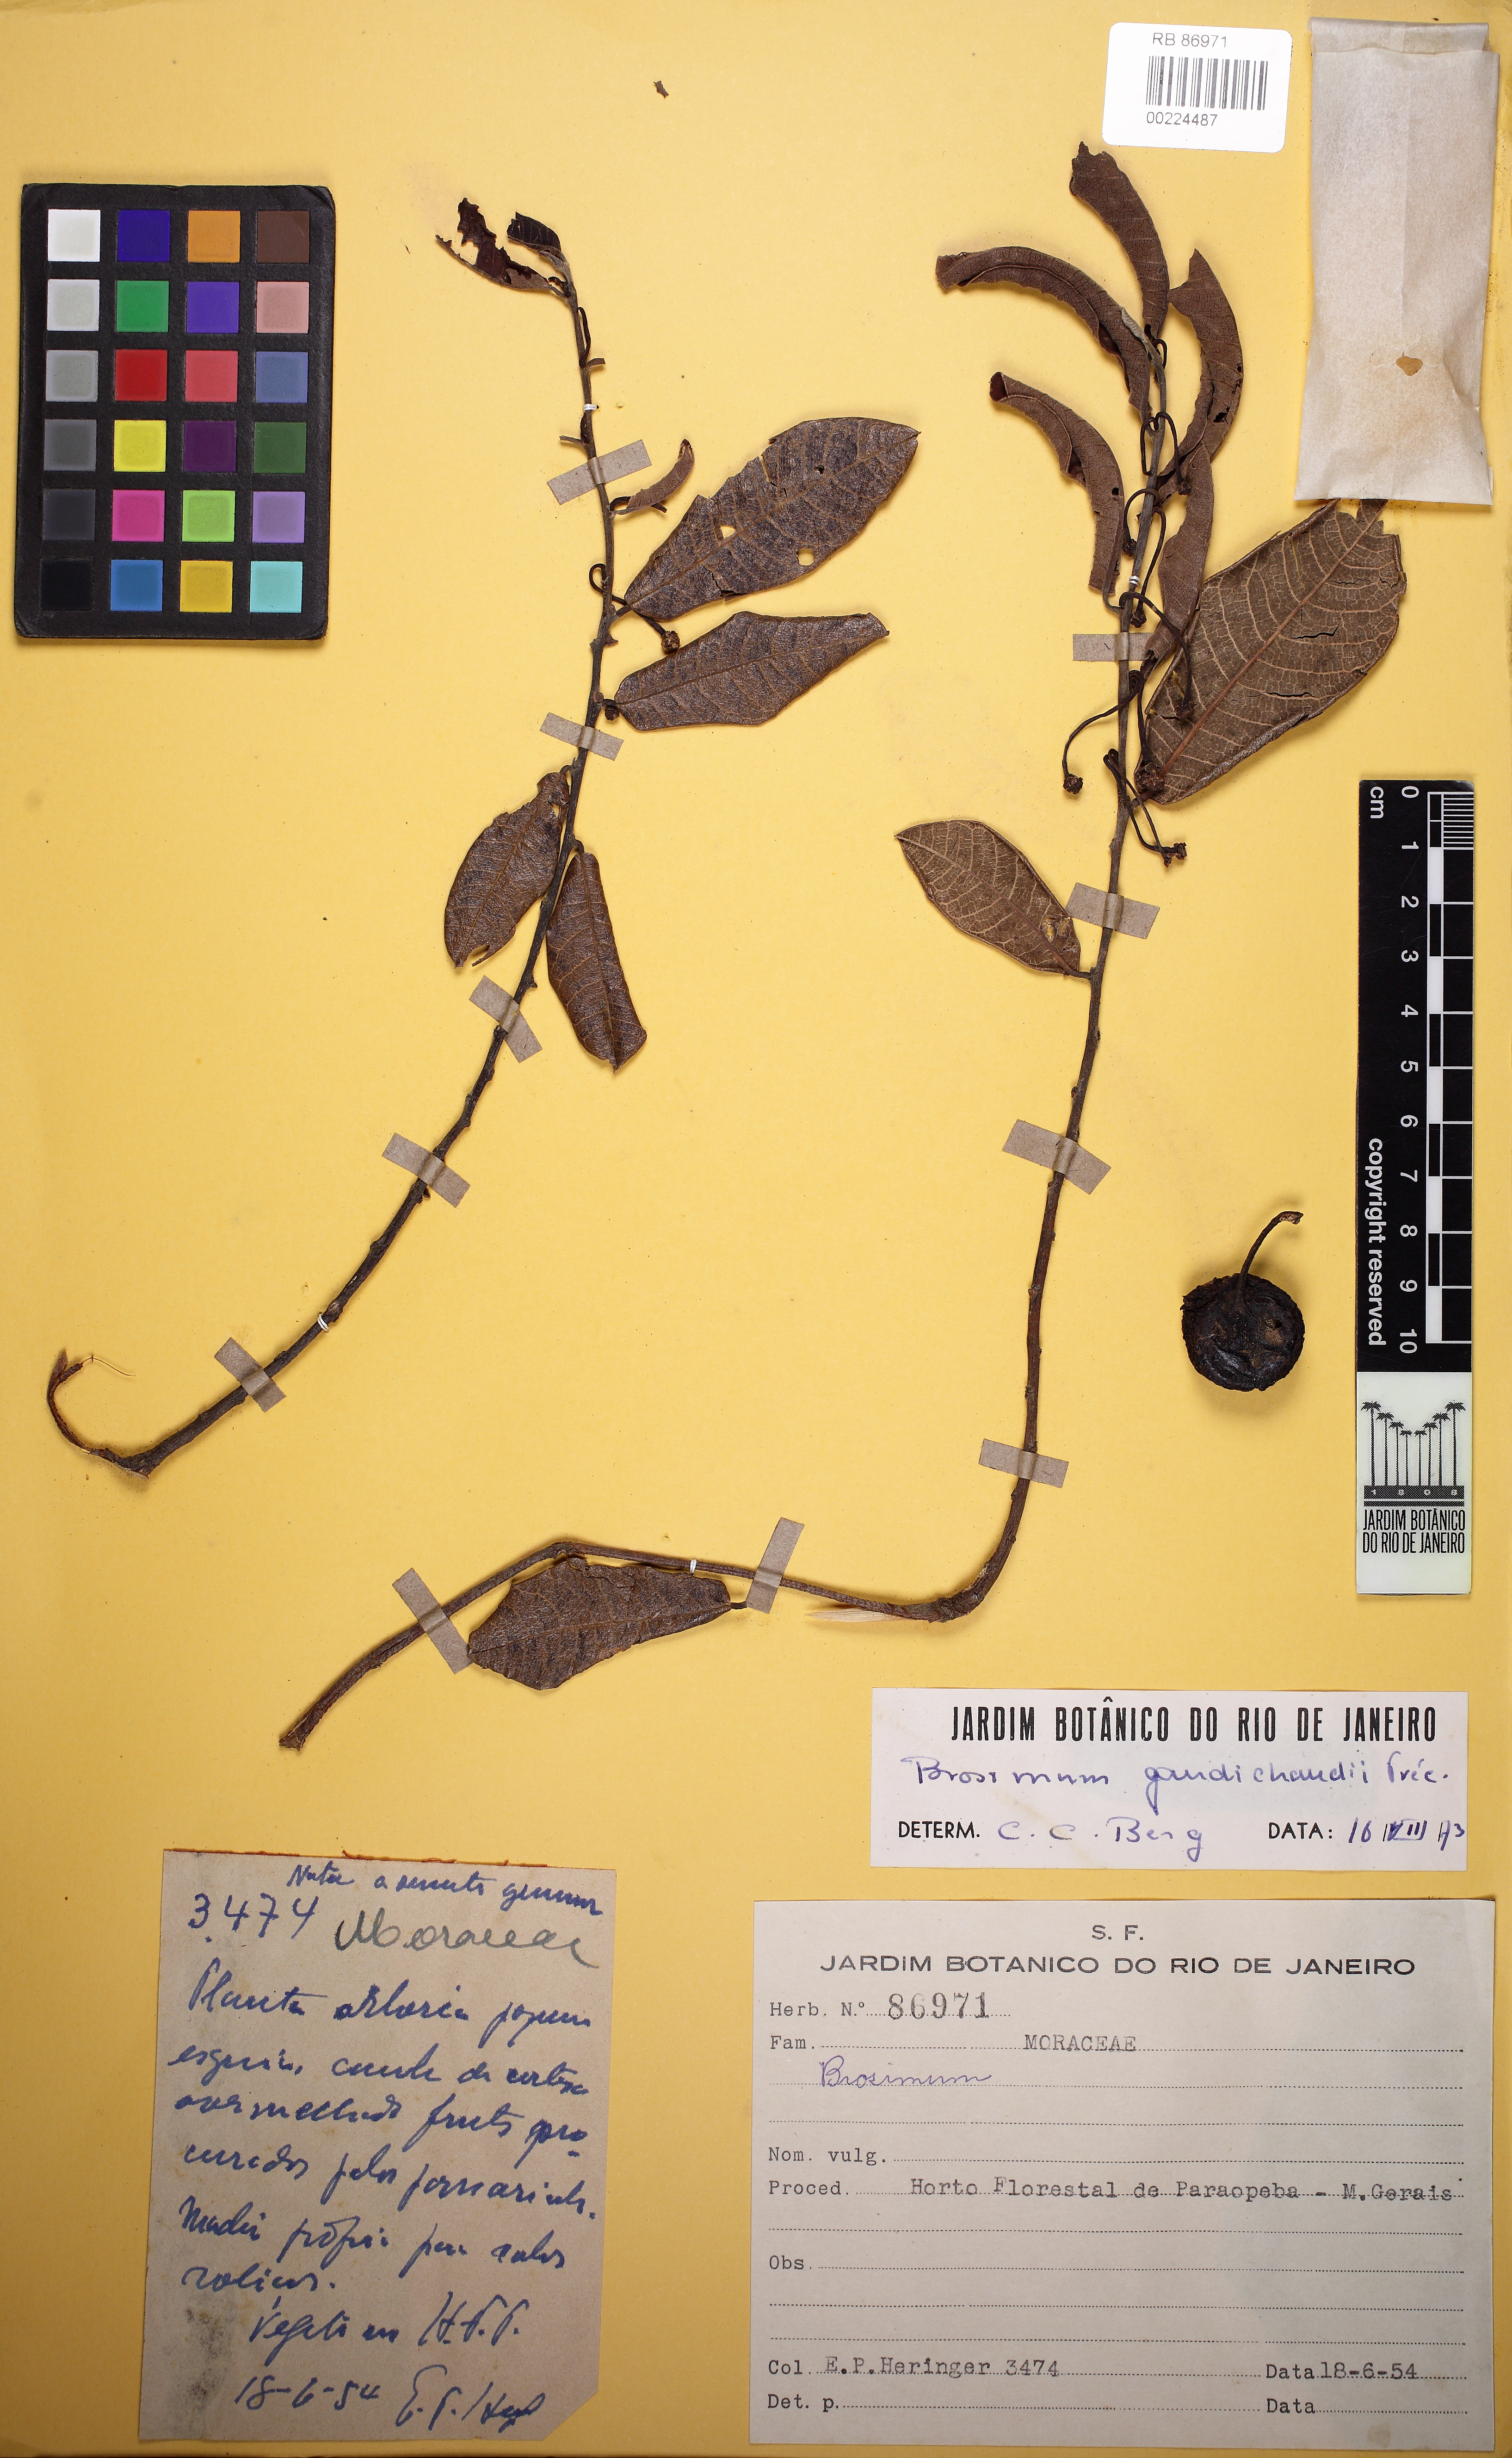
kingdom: Plantae
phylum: Tracheophyta
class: Magnoliopsida
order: Rosales
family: Moraceae
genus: Brosimum
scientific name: Brosimum gaudichaudii
